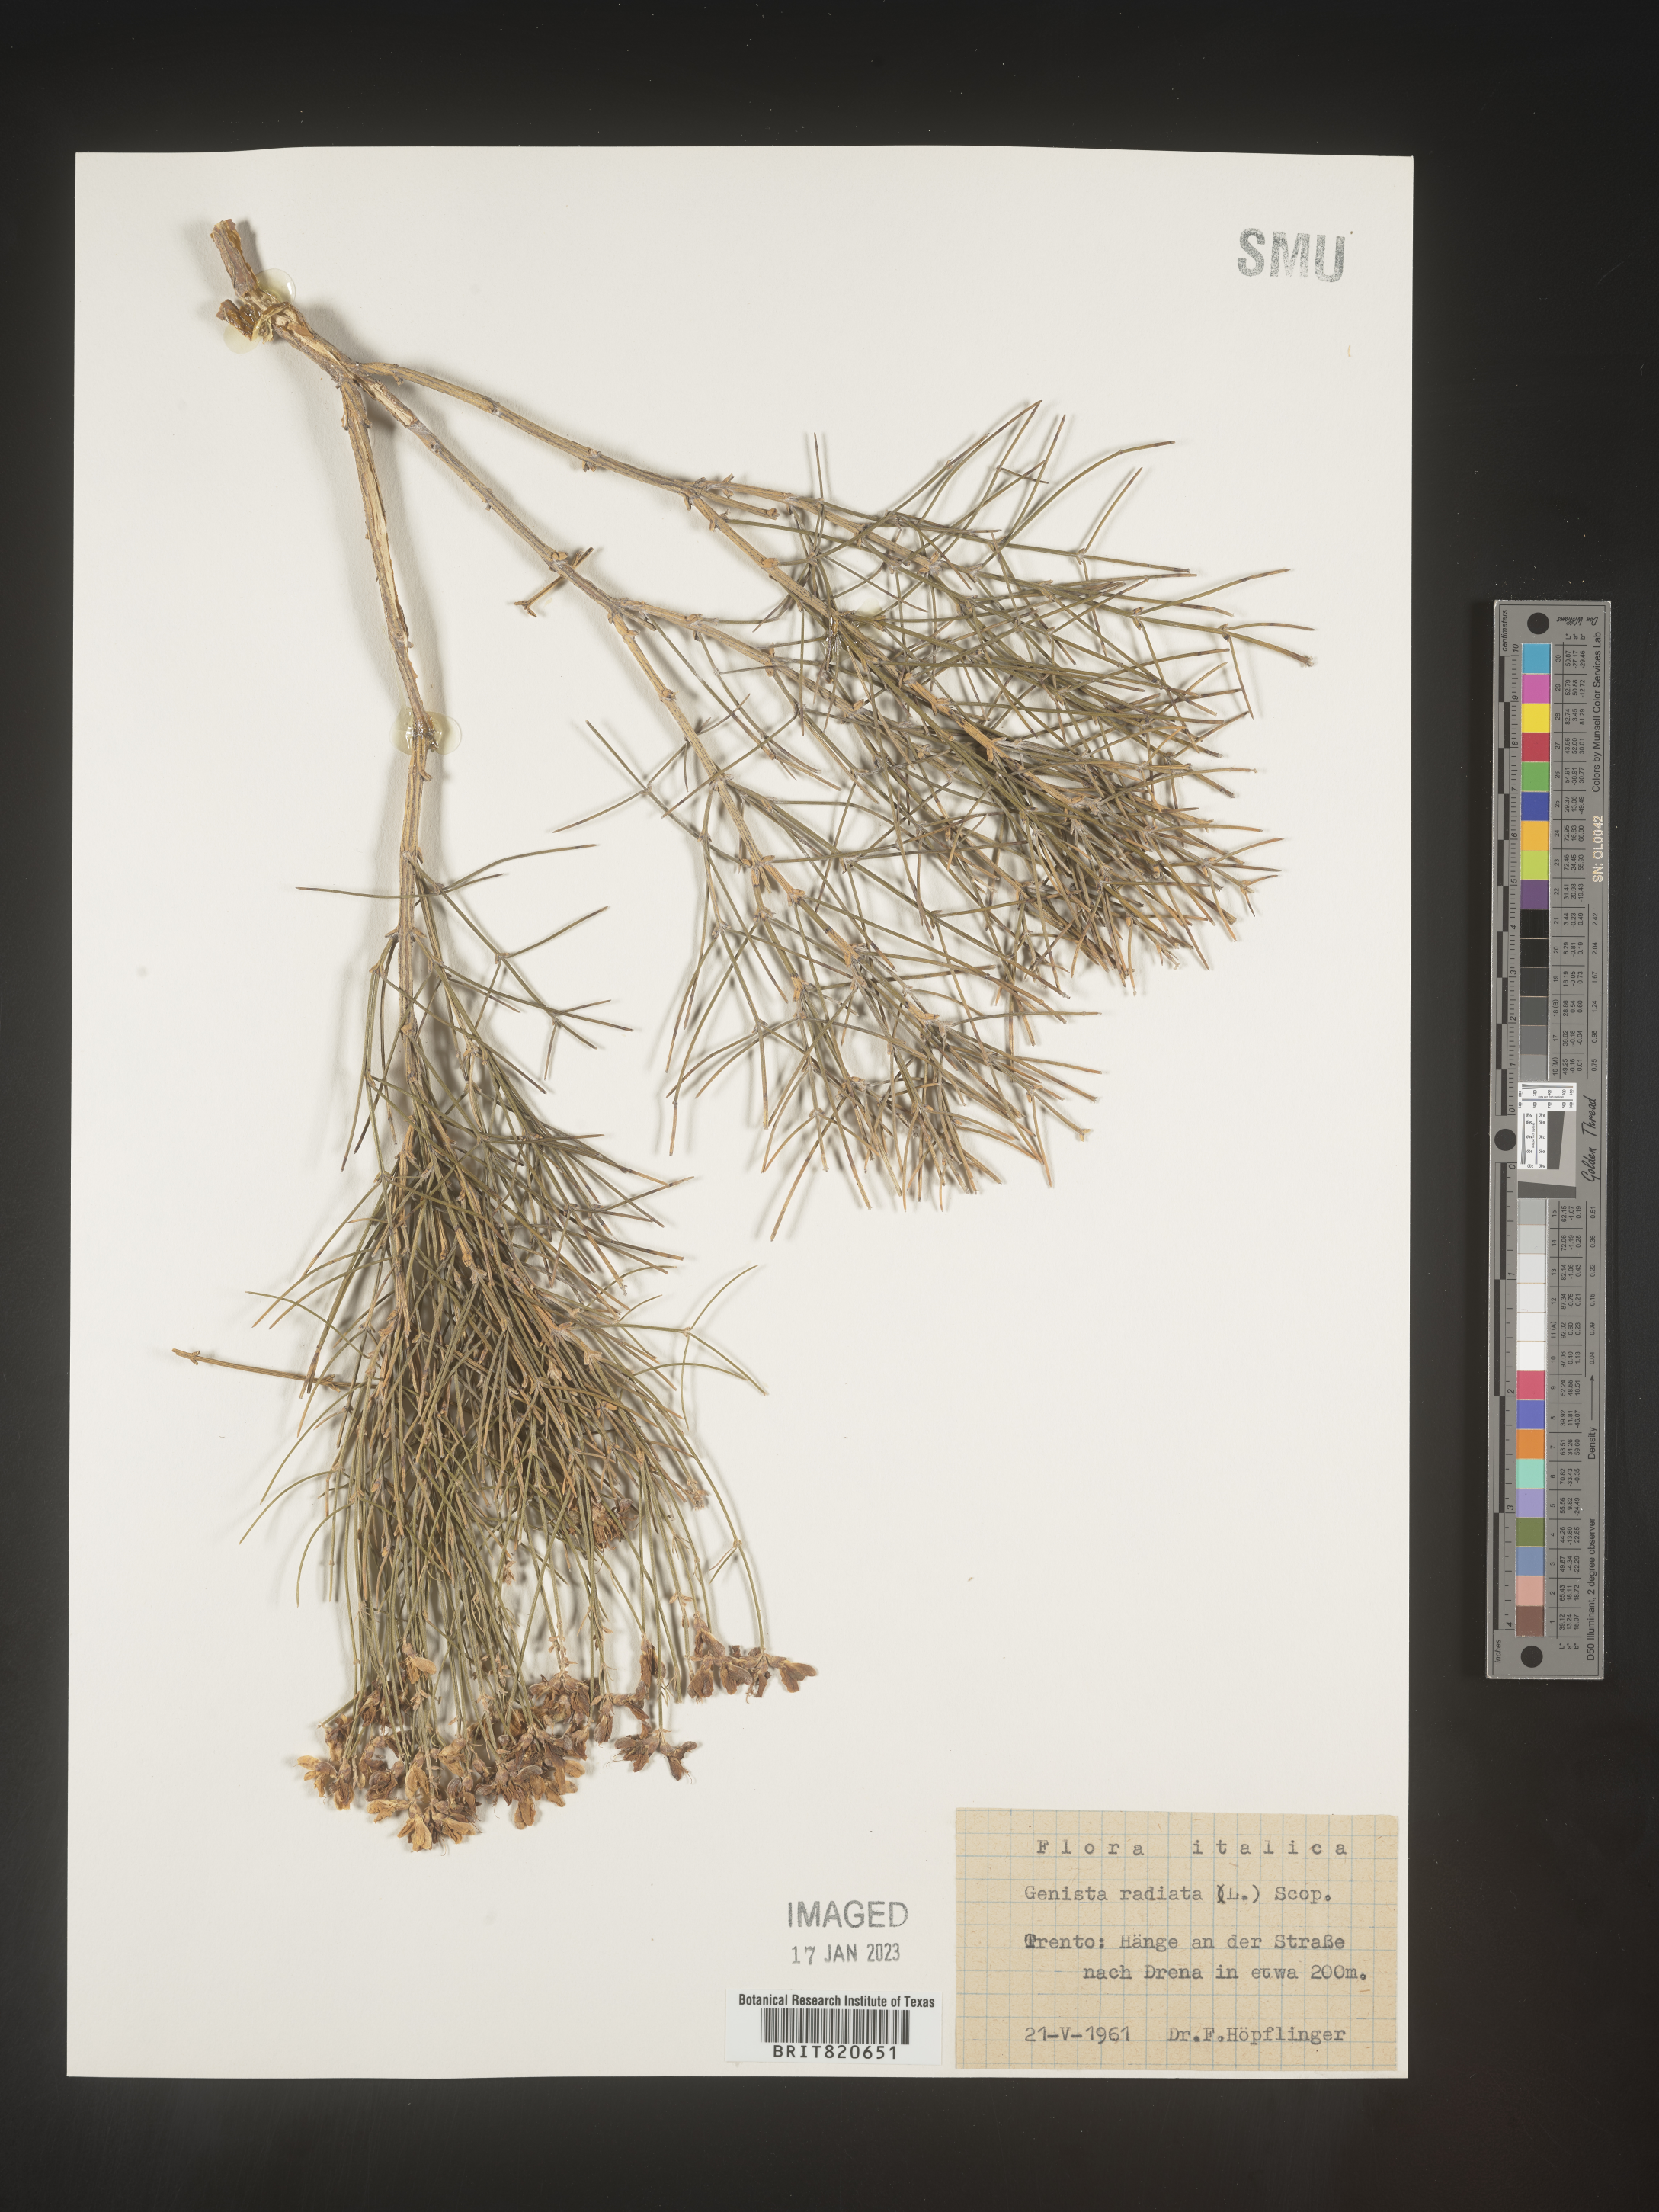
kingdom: Plantae
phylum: Tracheophyta
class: Magnoliopsida
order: Fabales
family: Fabaceae
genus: Genista
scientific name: Genista
